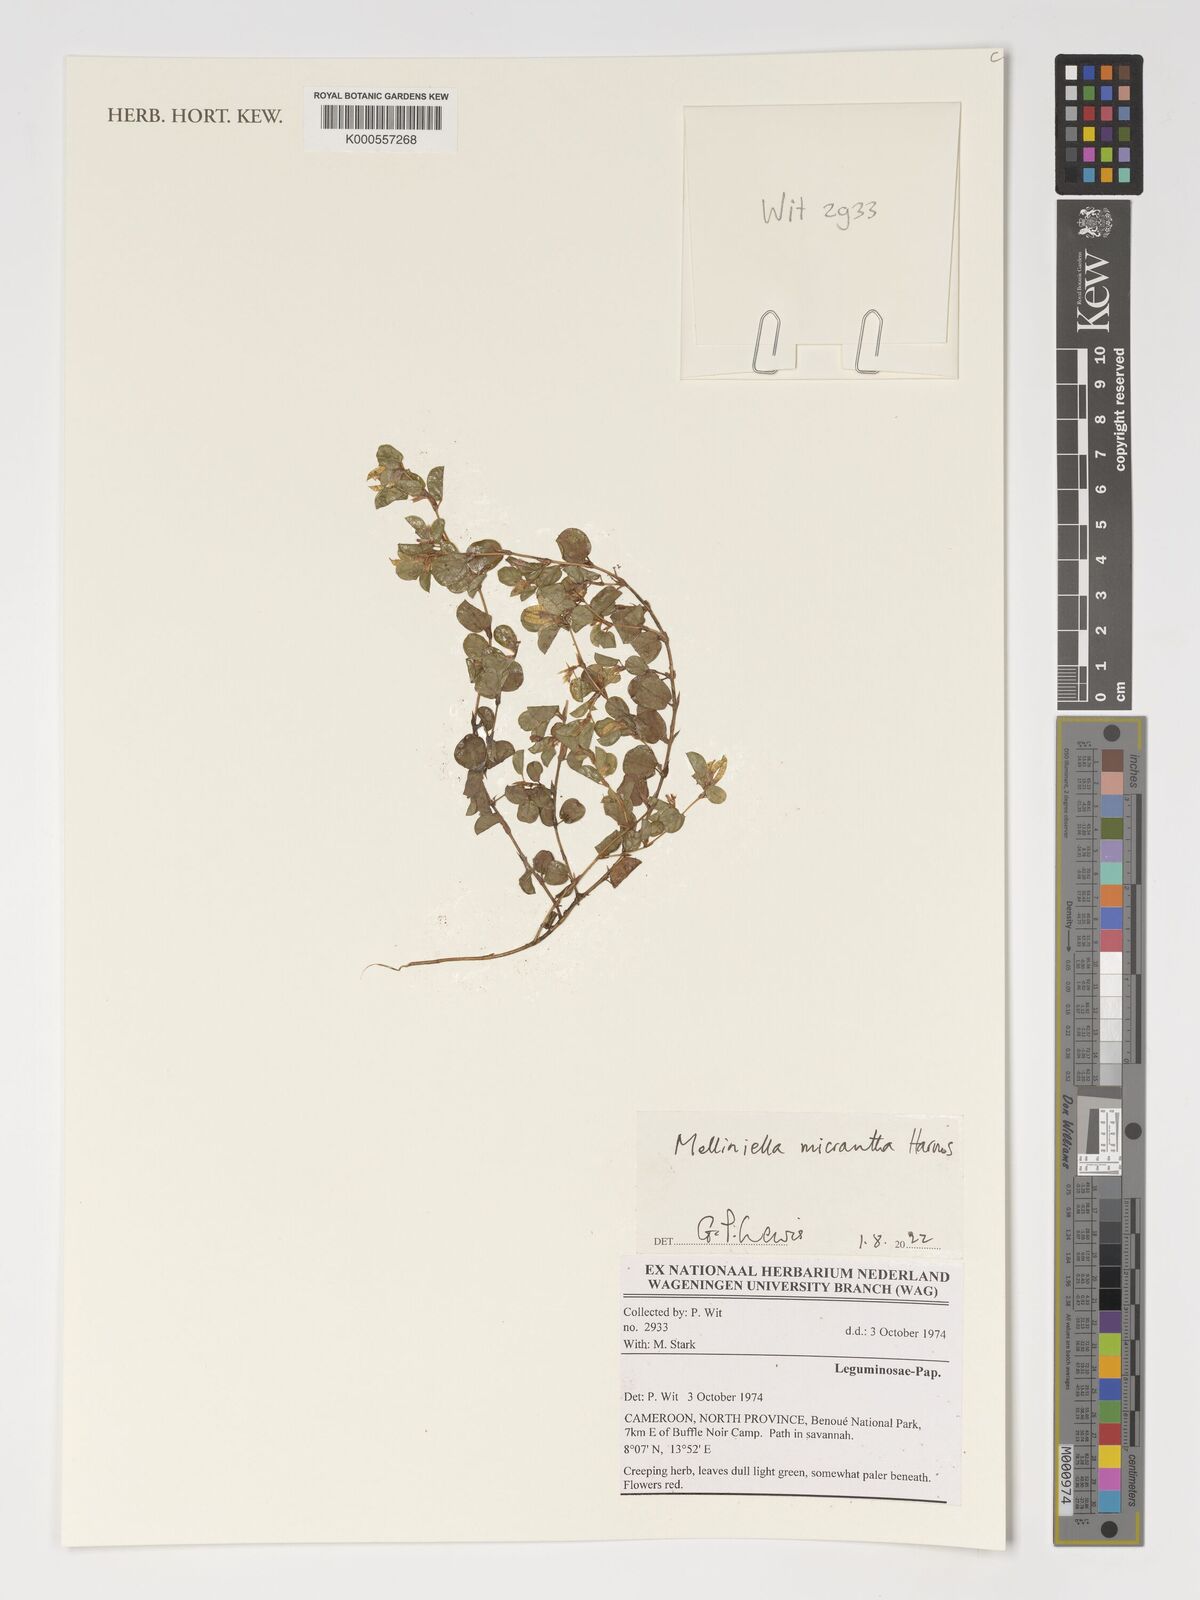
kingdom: Plantae
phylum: Tracheophyta
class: Magnoliopsida
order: Fabales
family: Fabaceae
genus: Melliniella
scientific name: Melliniella micrantha
